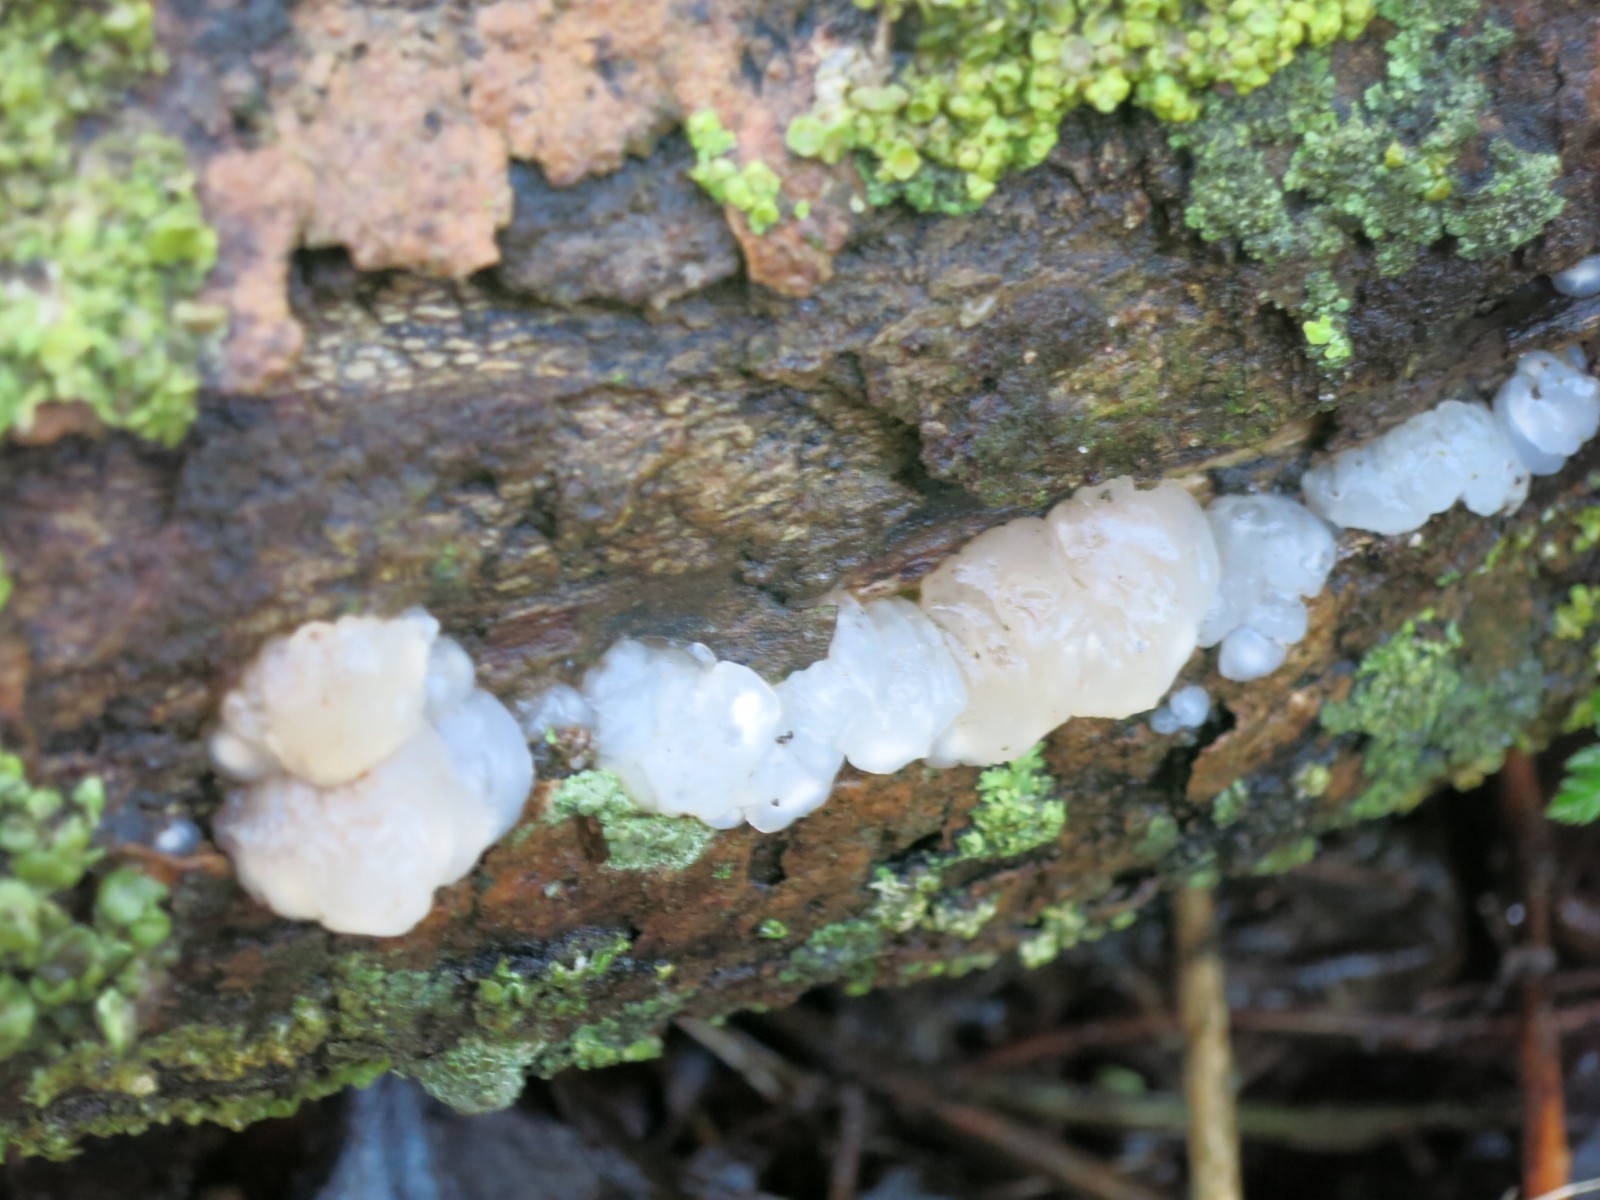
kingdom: Fungi
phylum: Basidiomycota
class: Agaricomycetes
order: Auriculariales
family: Hyaloriaceae
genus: Myxarium
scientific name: Myxarium nucleatum
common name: klar bævretop
